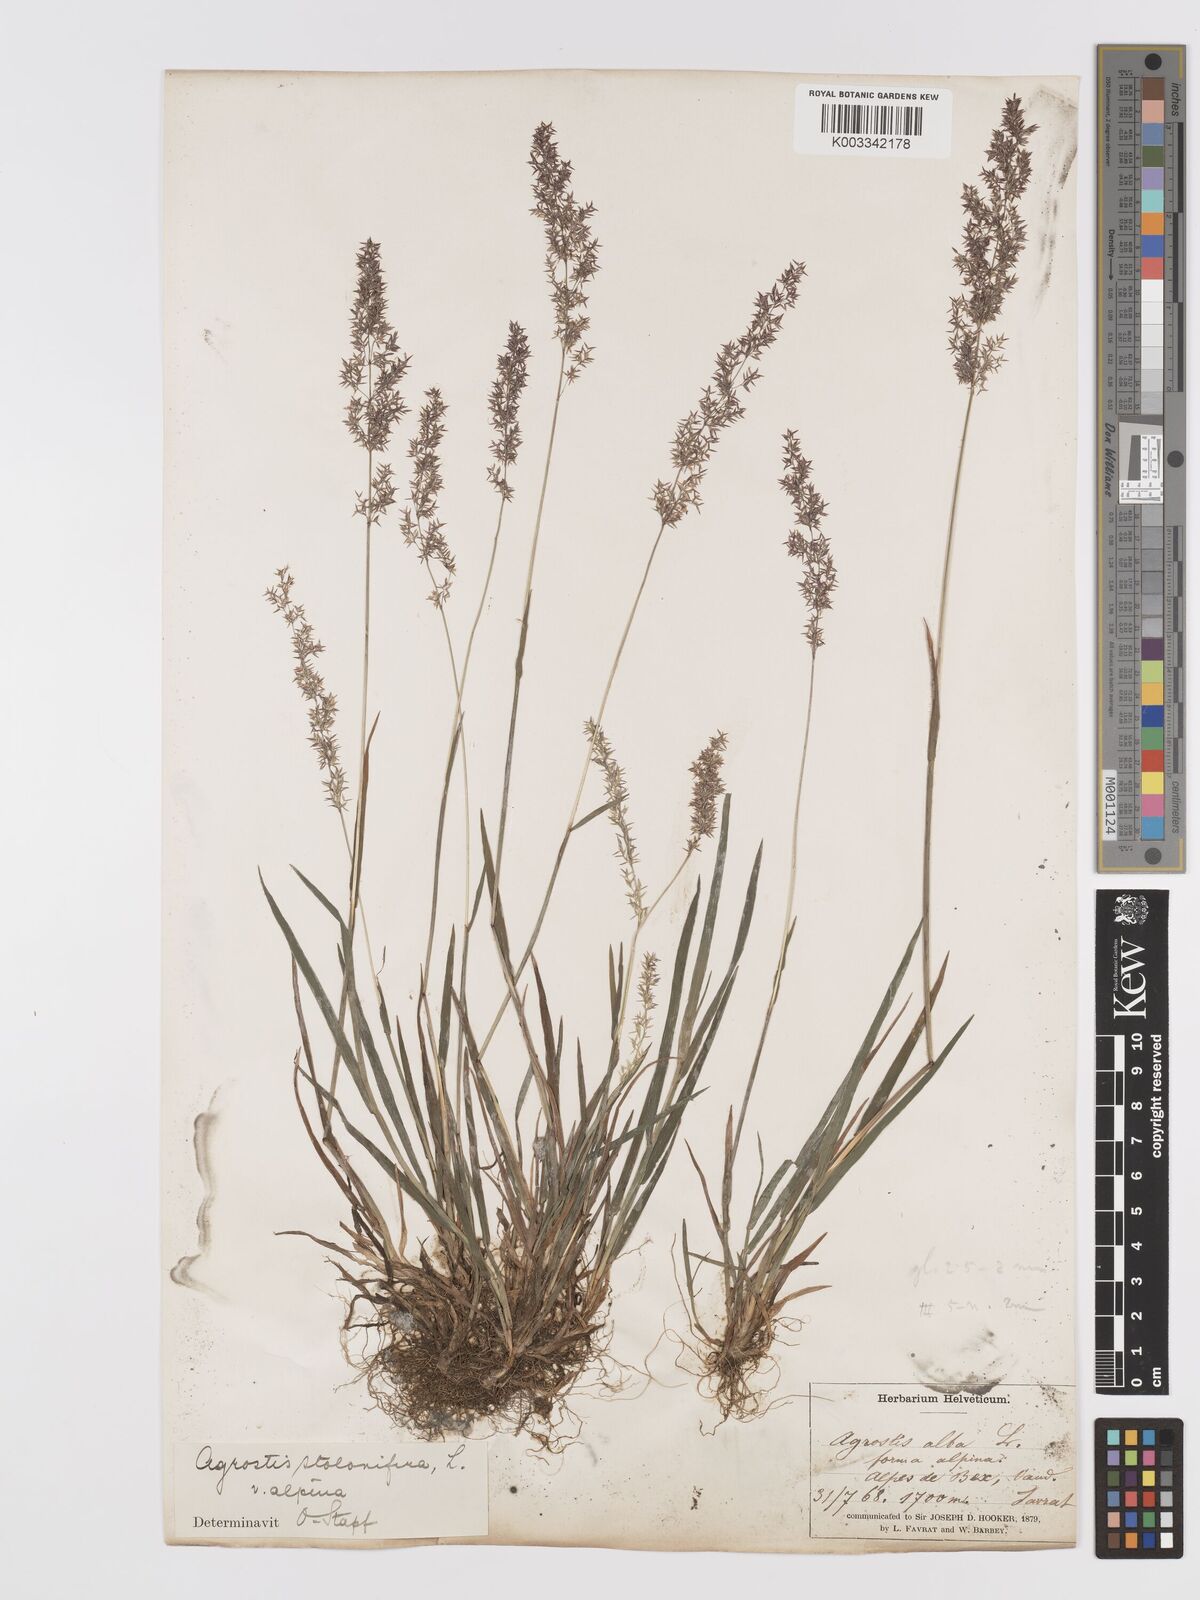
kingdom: Plantae
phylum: Tracheophyta
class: Liliopsida
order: Poales
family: Poaceae
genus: Agrostis
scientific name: Agrostis stolonifera
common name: Creeping bentgrass
